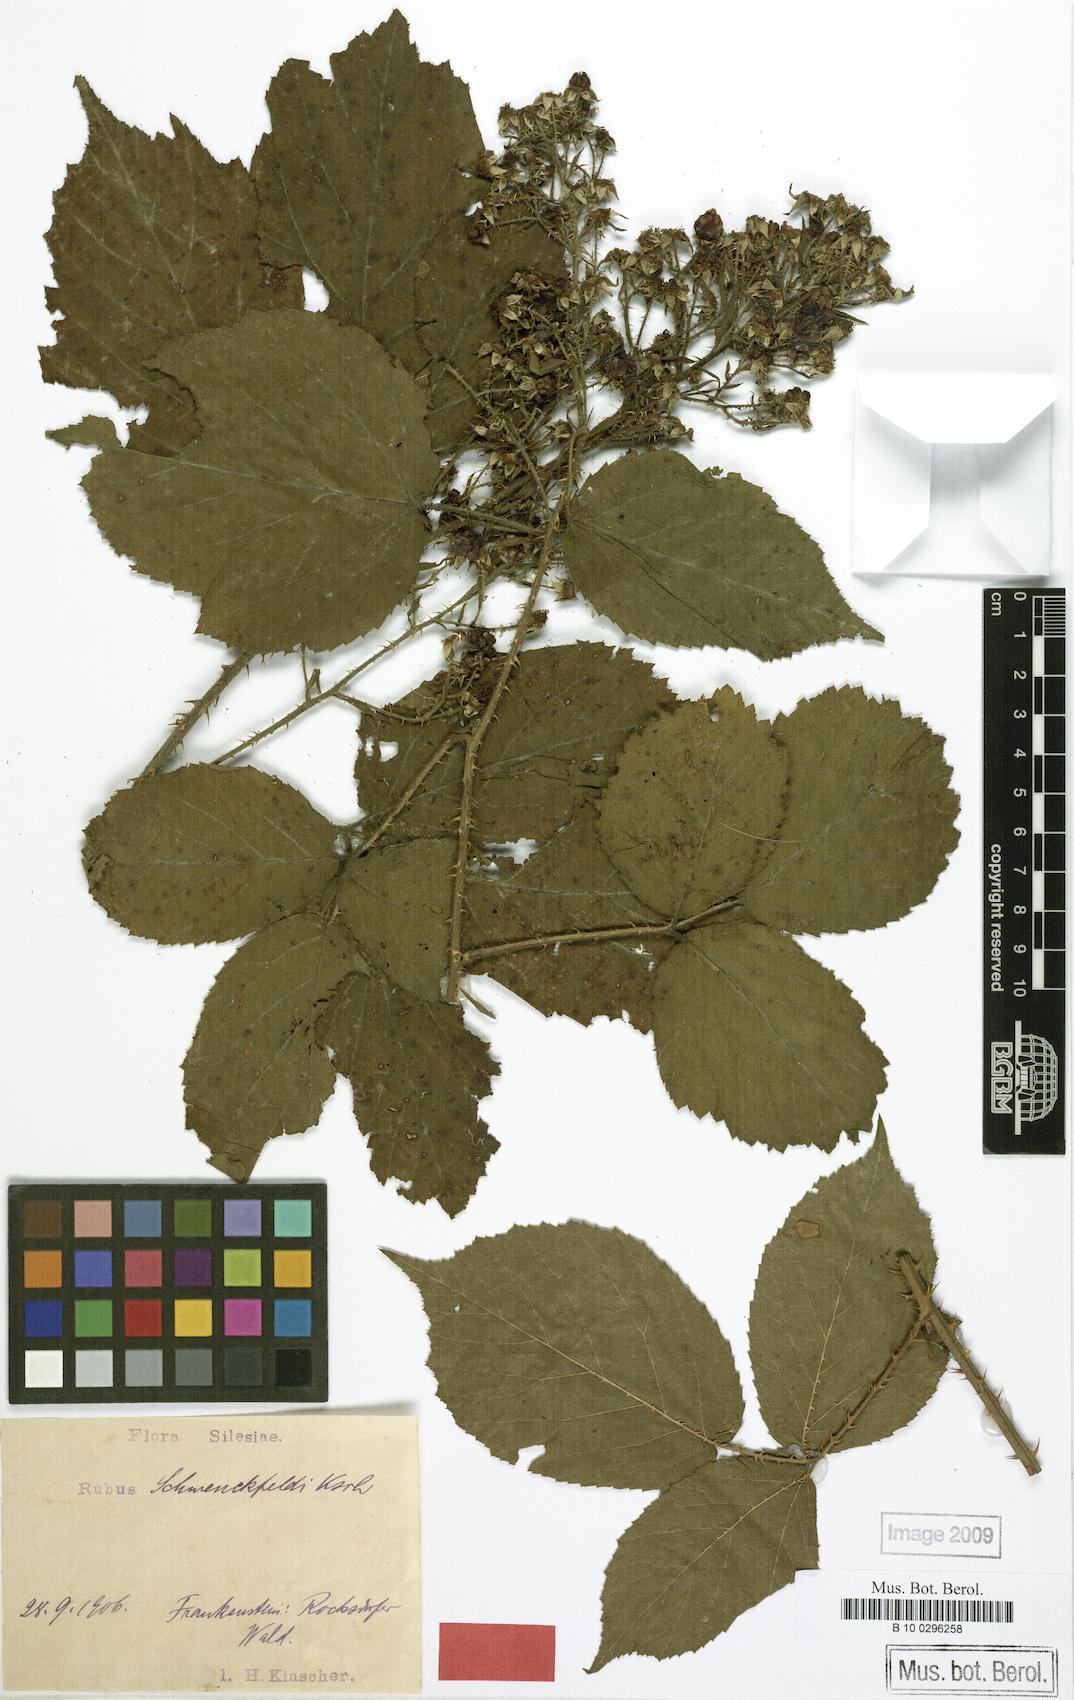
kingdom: Plantae
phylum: Tracheophyta
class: Magnoliopsida
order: Rosales
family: Rosaceae
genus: Rubus
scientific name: Rubus cimbricus
